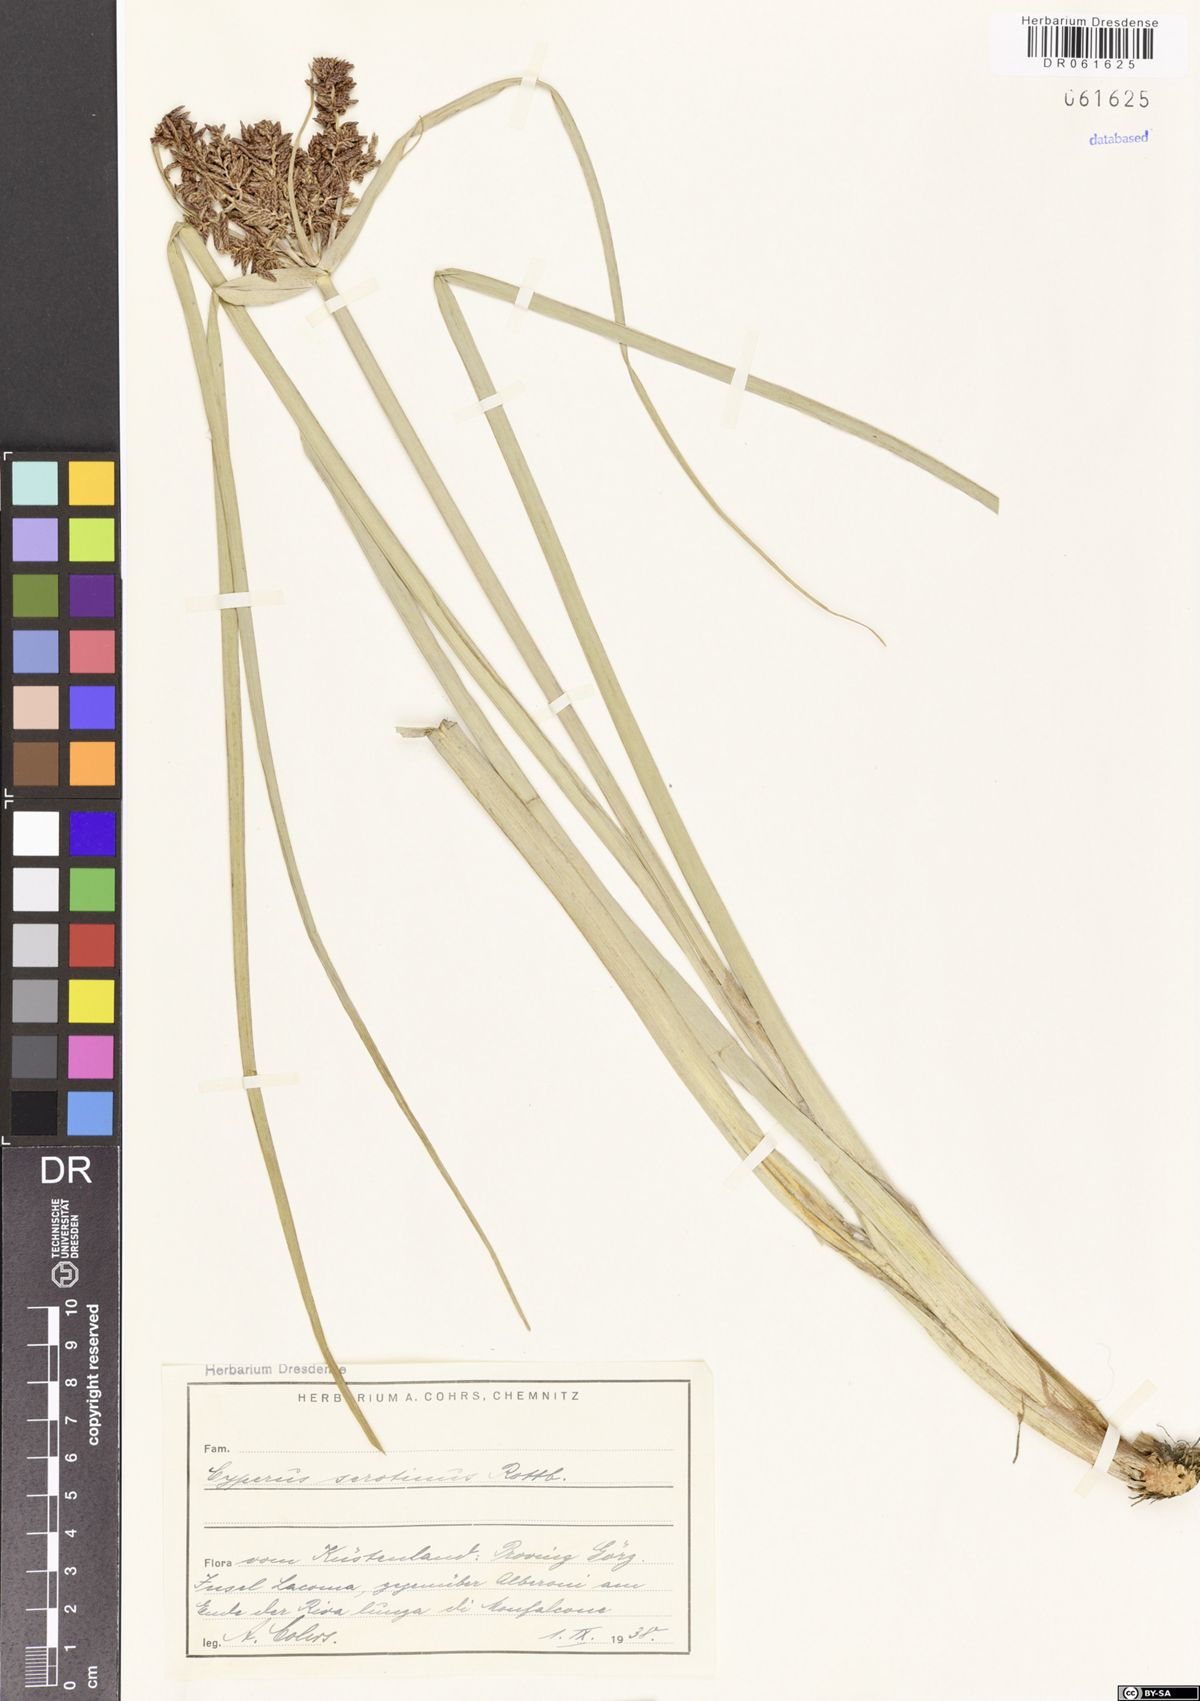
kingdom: Plantae
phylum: Tracheophyta
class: Liliopsida
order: Poales
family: Cyperaceae
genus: Cyperus
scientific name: Cyperus serotinus
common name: Tidalmarsh flatsedge
